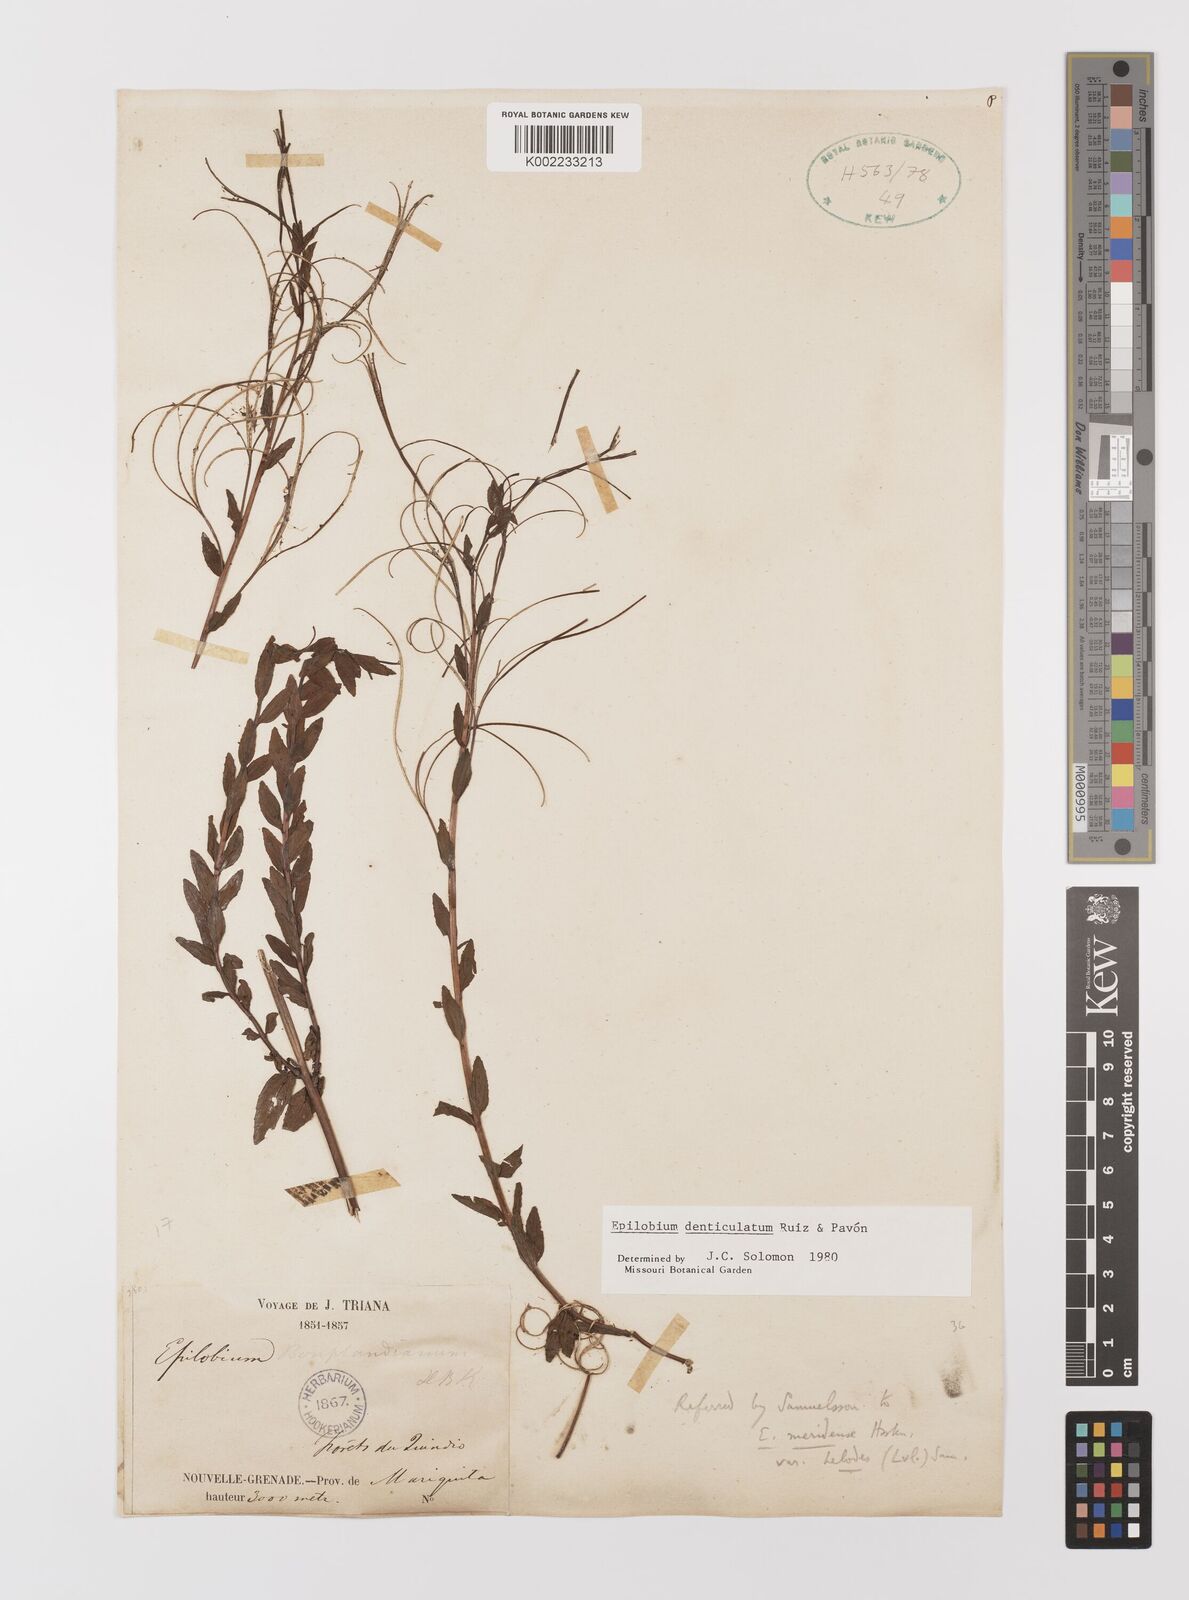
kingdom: Plantae
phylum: Tracheophyta
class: Magnoliopsida
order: Myrtales
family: Onagraceae
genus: Epilobium
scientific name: Epilobium denticulatum
